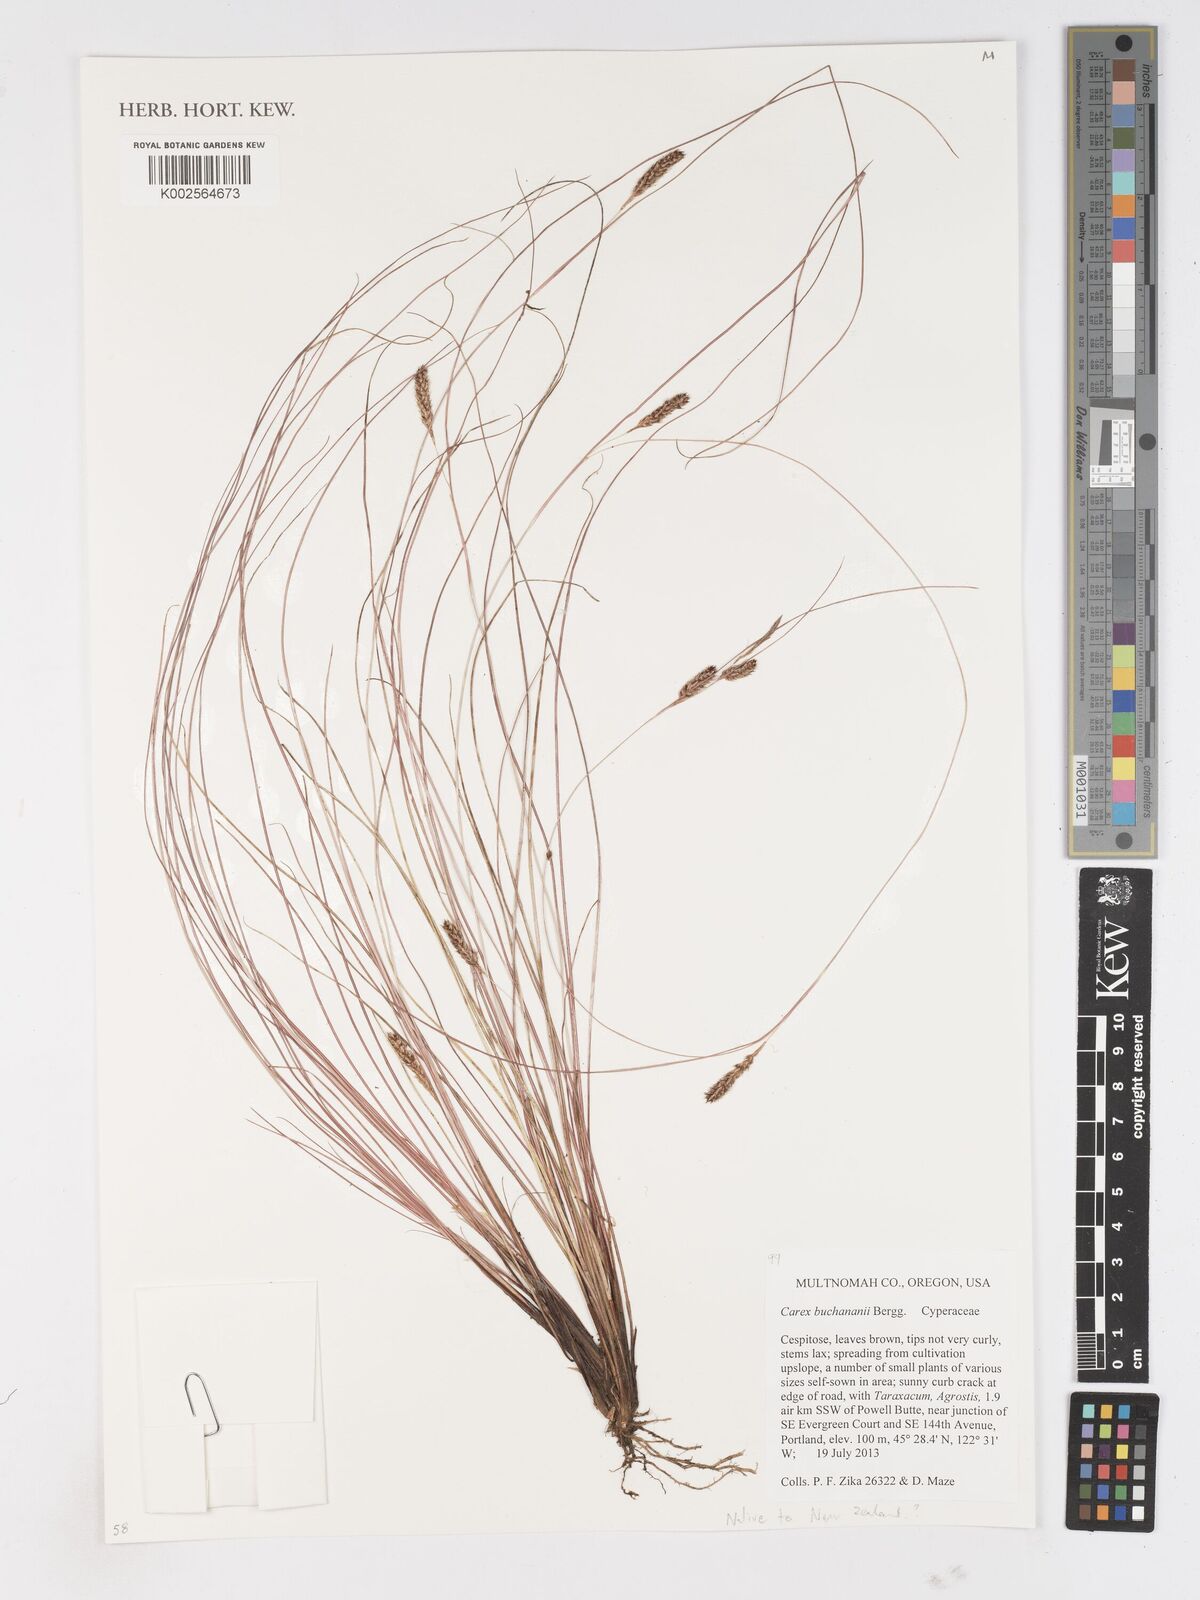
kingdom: Plantae
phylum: Tracheophyta
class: Liliopsida
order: Poales
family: Cyperaceae
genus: Carex
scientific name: Carex buchananii
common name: Leatherleaf sedge
